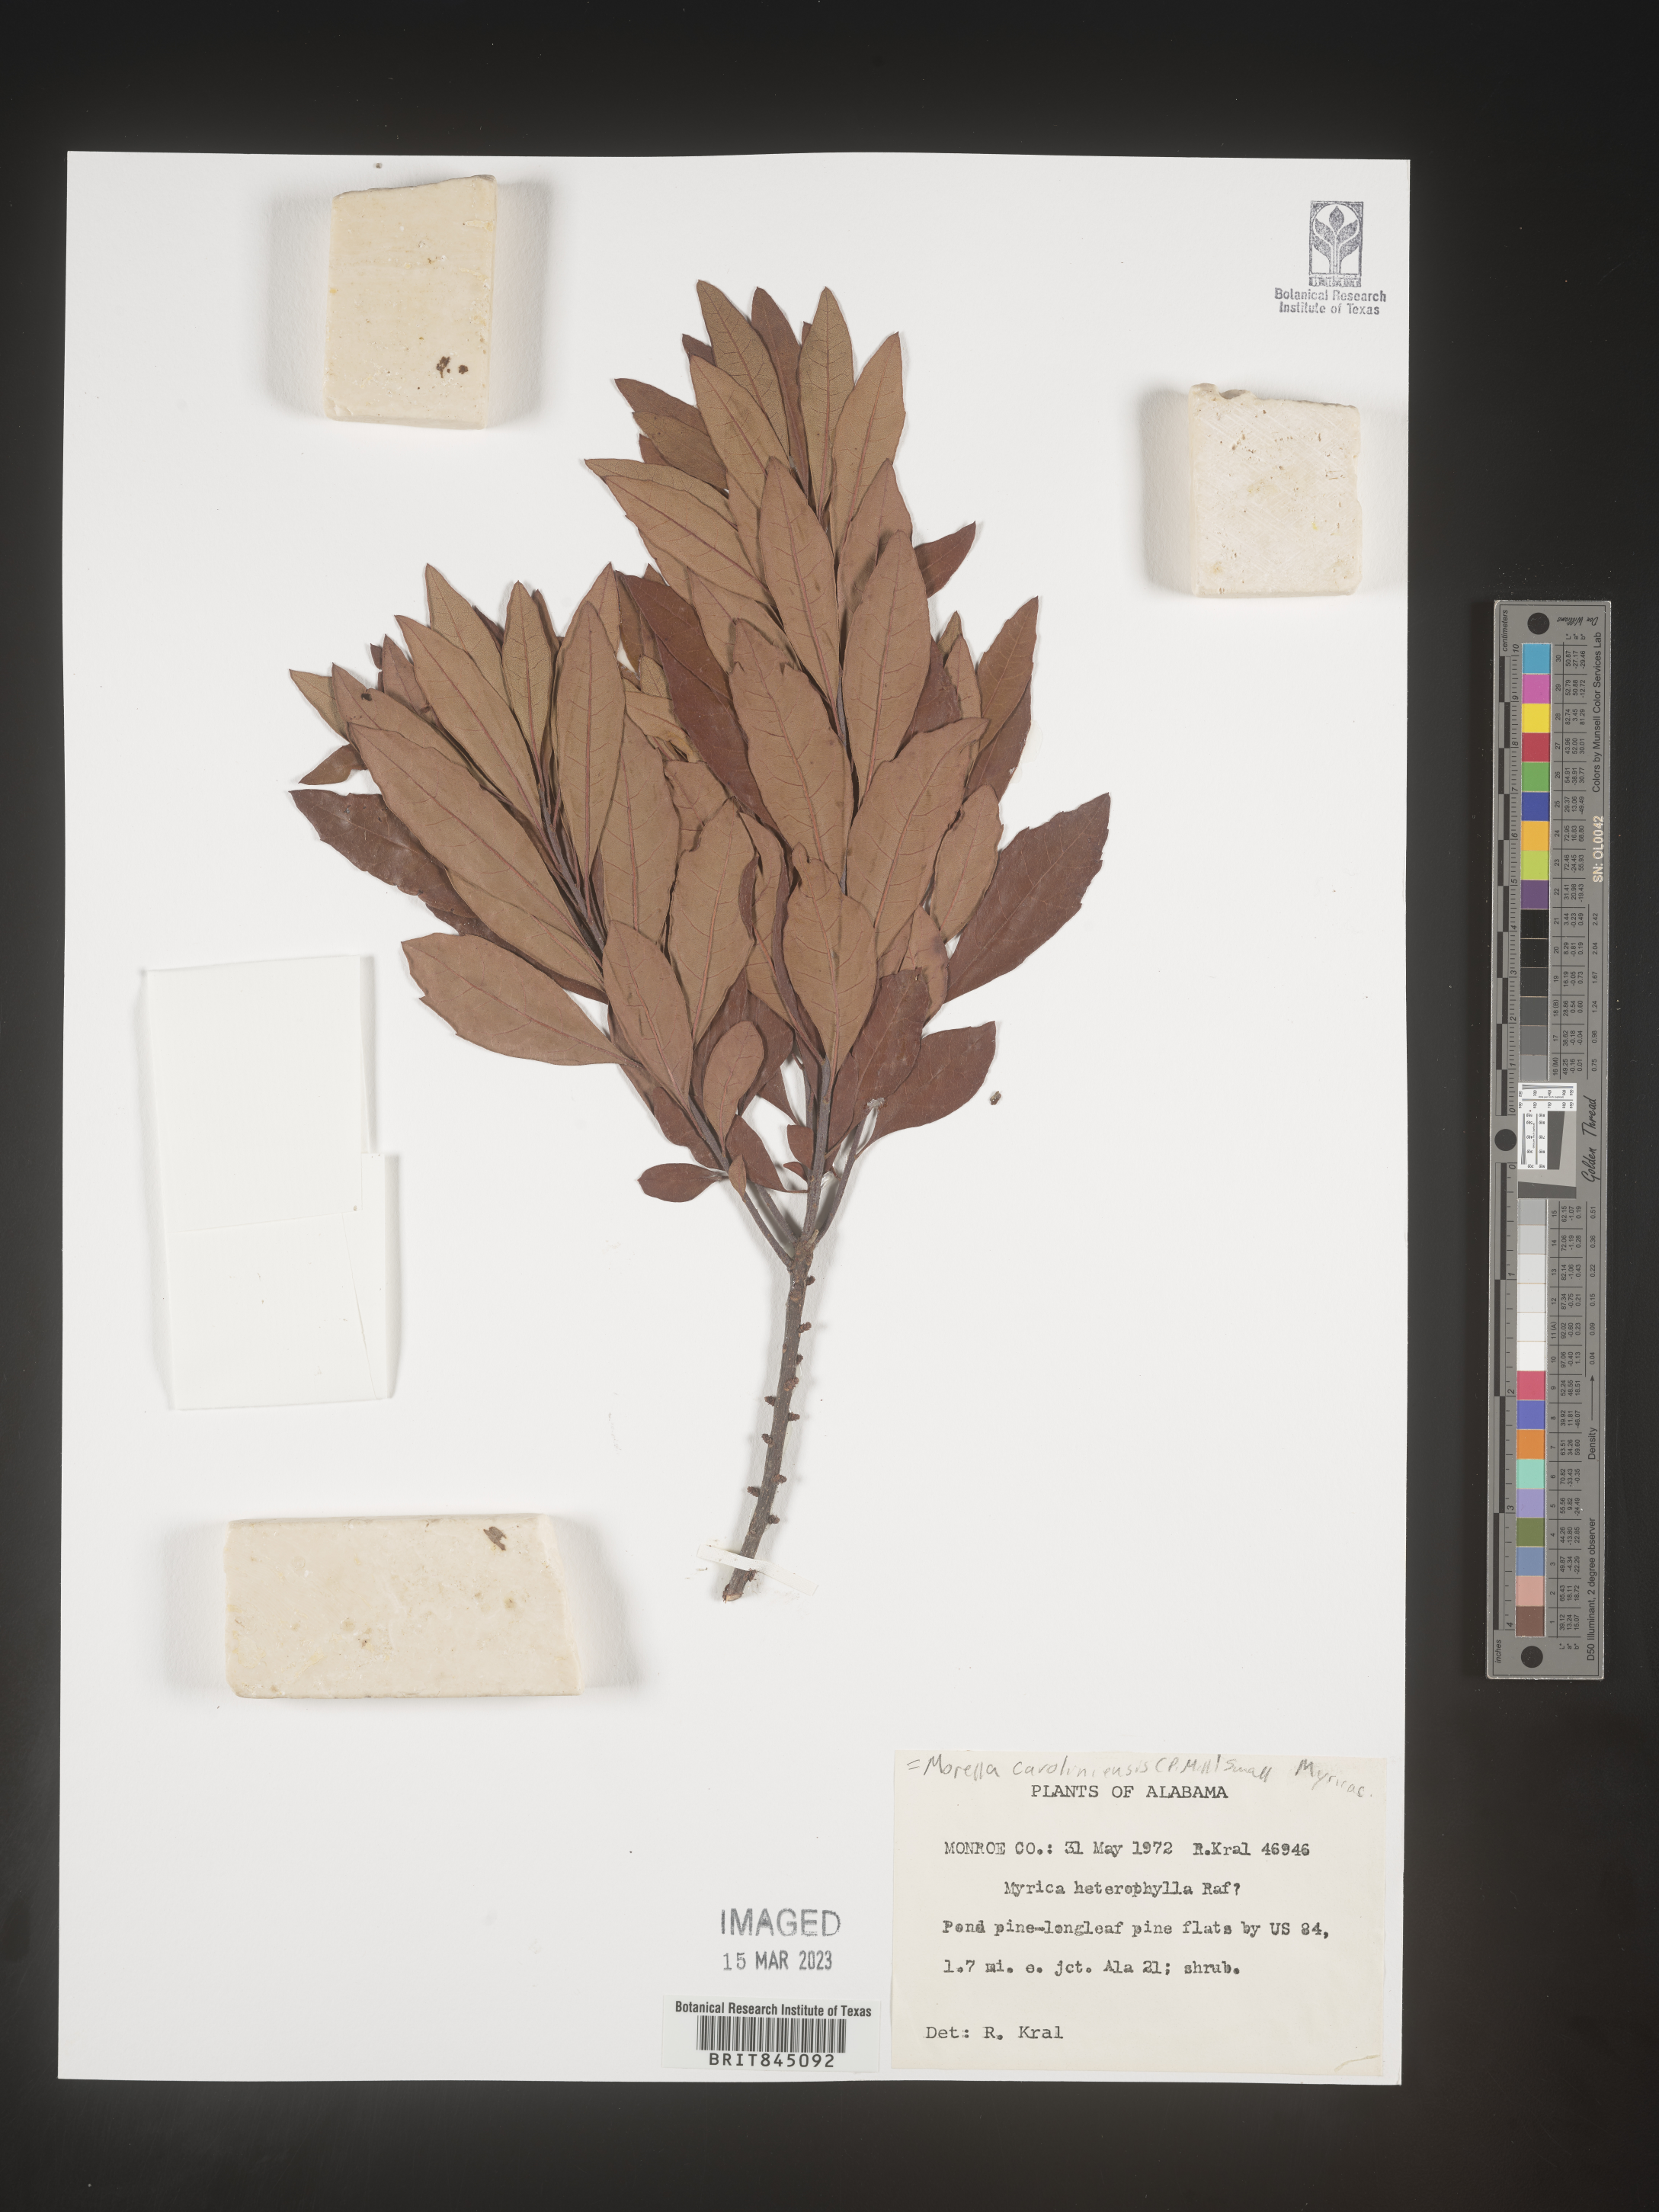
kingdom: Plantae
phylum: Tracheophyta
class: Magnoliopsida
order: Fagales
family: Myricaceae
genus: Morella
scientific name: Morella caroliniensis
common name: Evergreen bayberry
